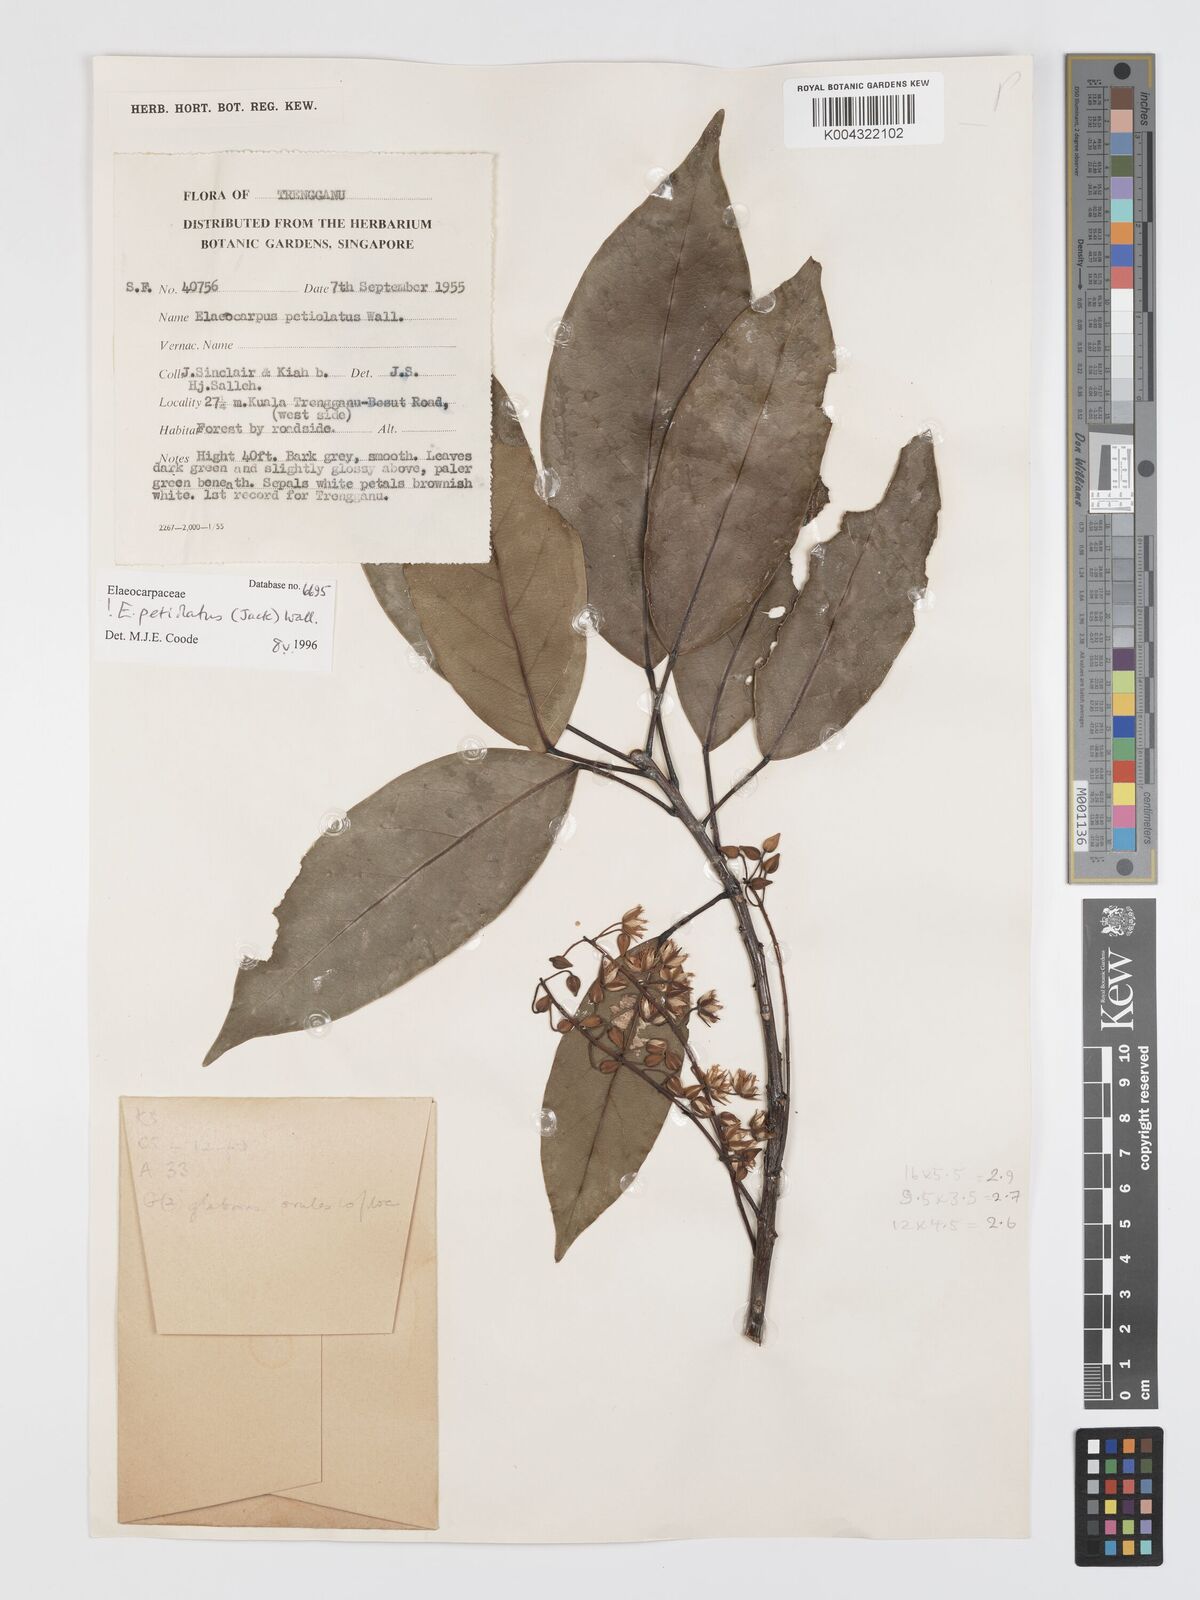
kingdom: Plantae
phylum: Tracheophyta
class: Magnoliopsida
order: Oxalidales
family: Elaeocarpaceae
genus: Elaeocarpus
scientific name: Elaeocarpus petiolatus
